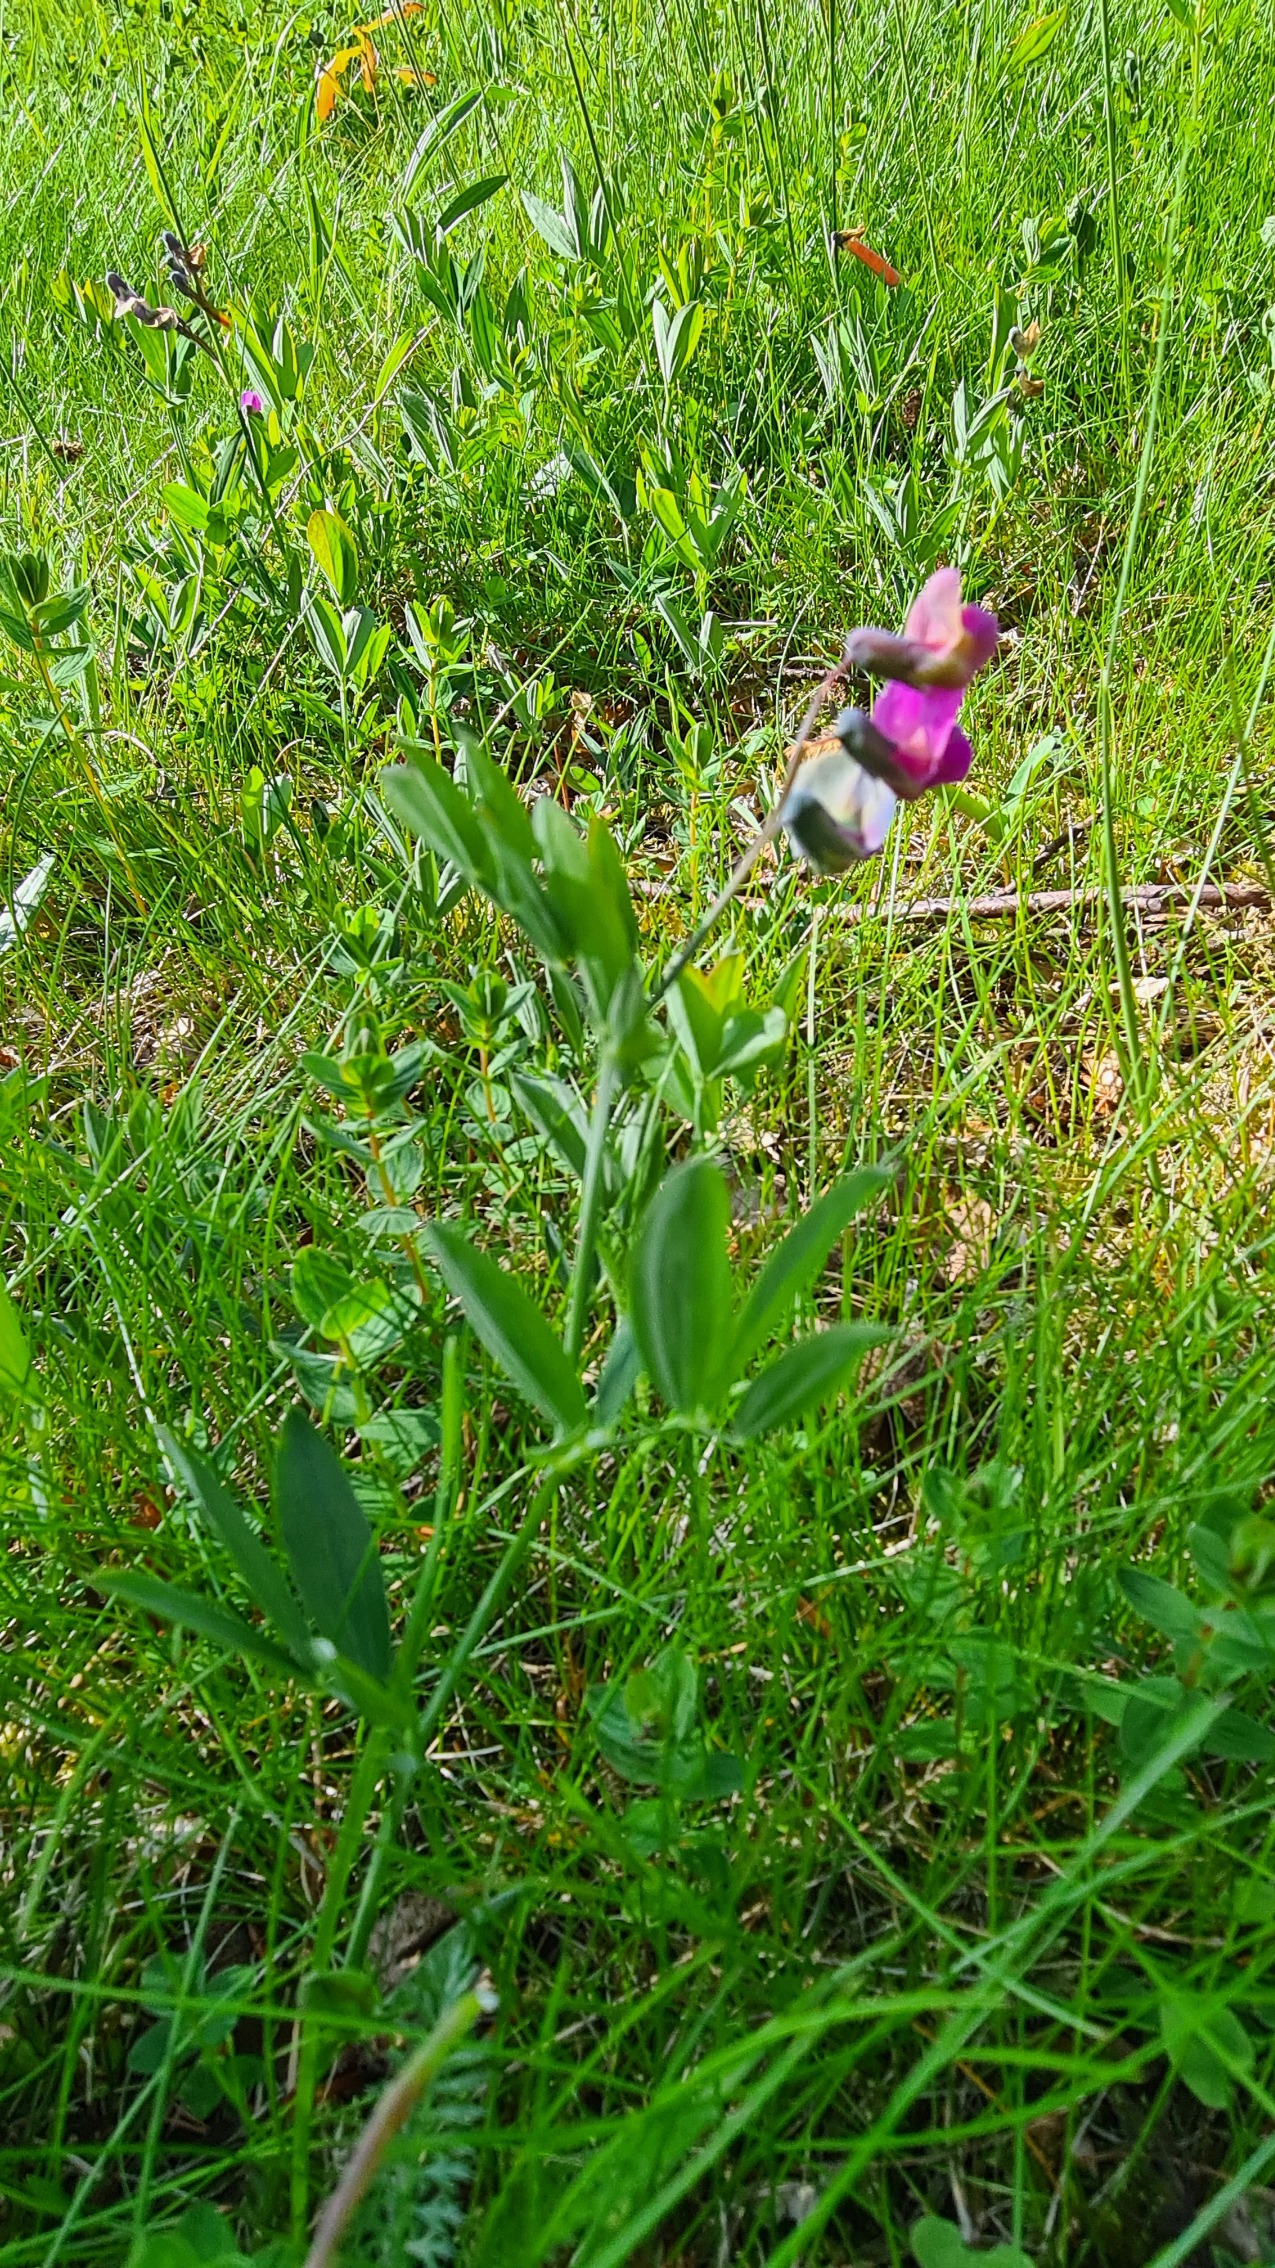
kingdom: Plantae
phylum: Tracheophyta
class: Magnoliopsida
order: Fabales
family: Fabaceae
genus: Lathyrus
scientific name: Lathyrus linifolius
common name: Krat-fladbælg
